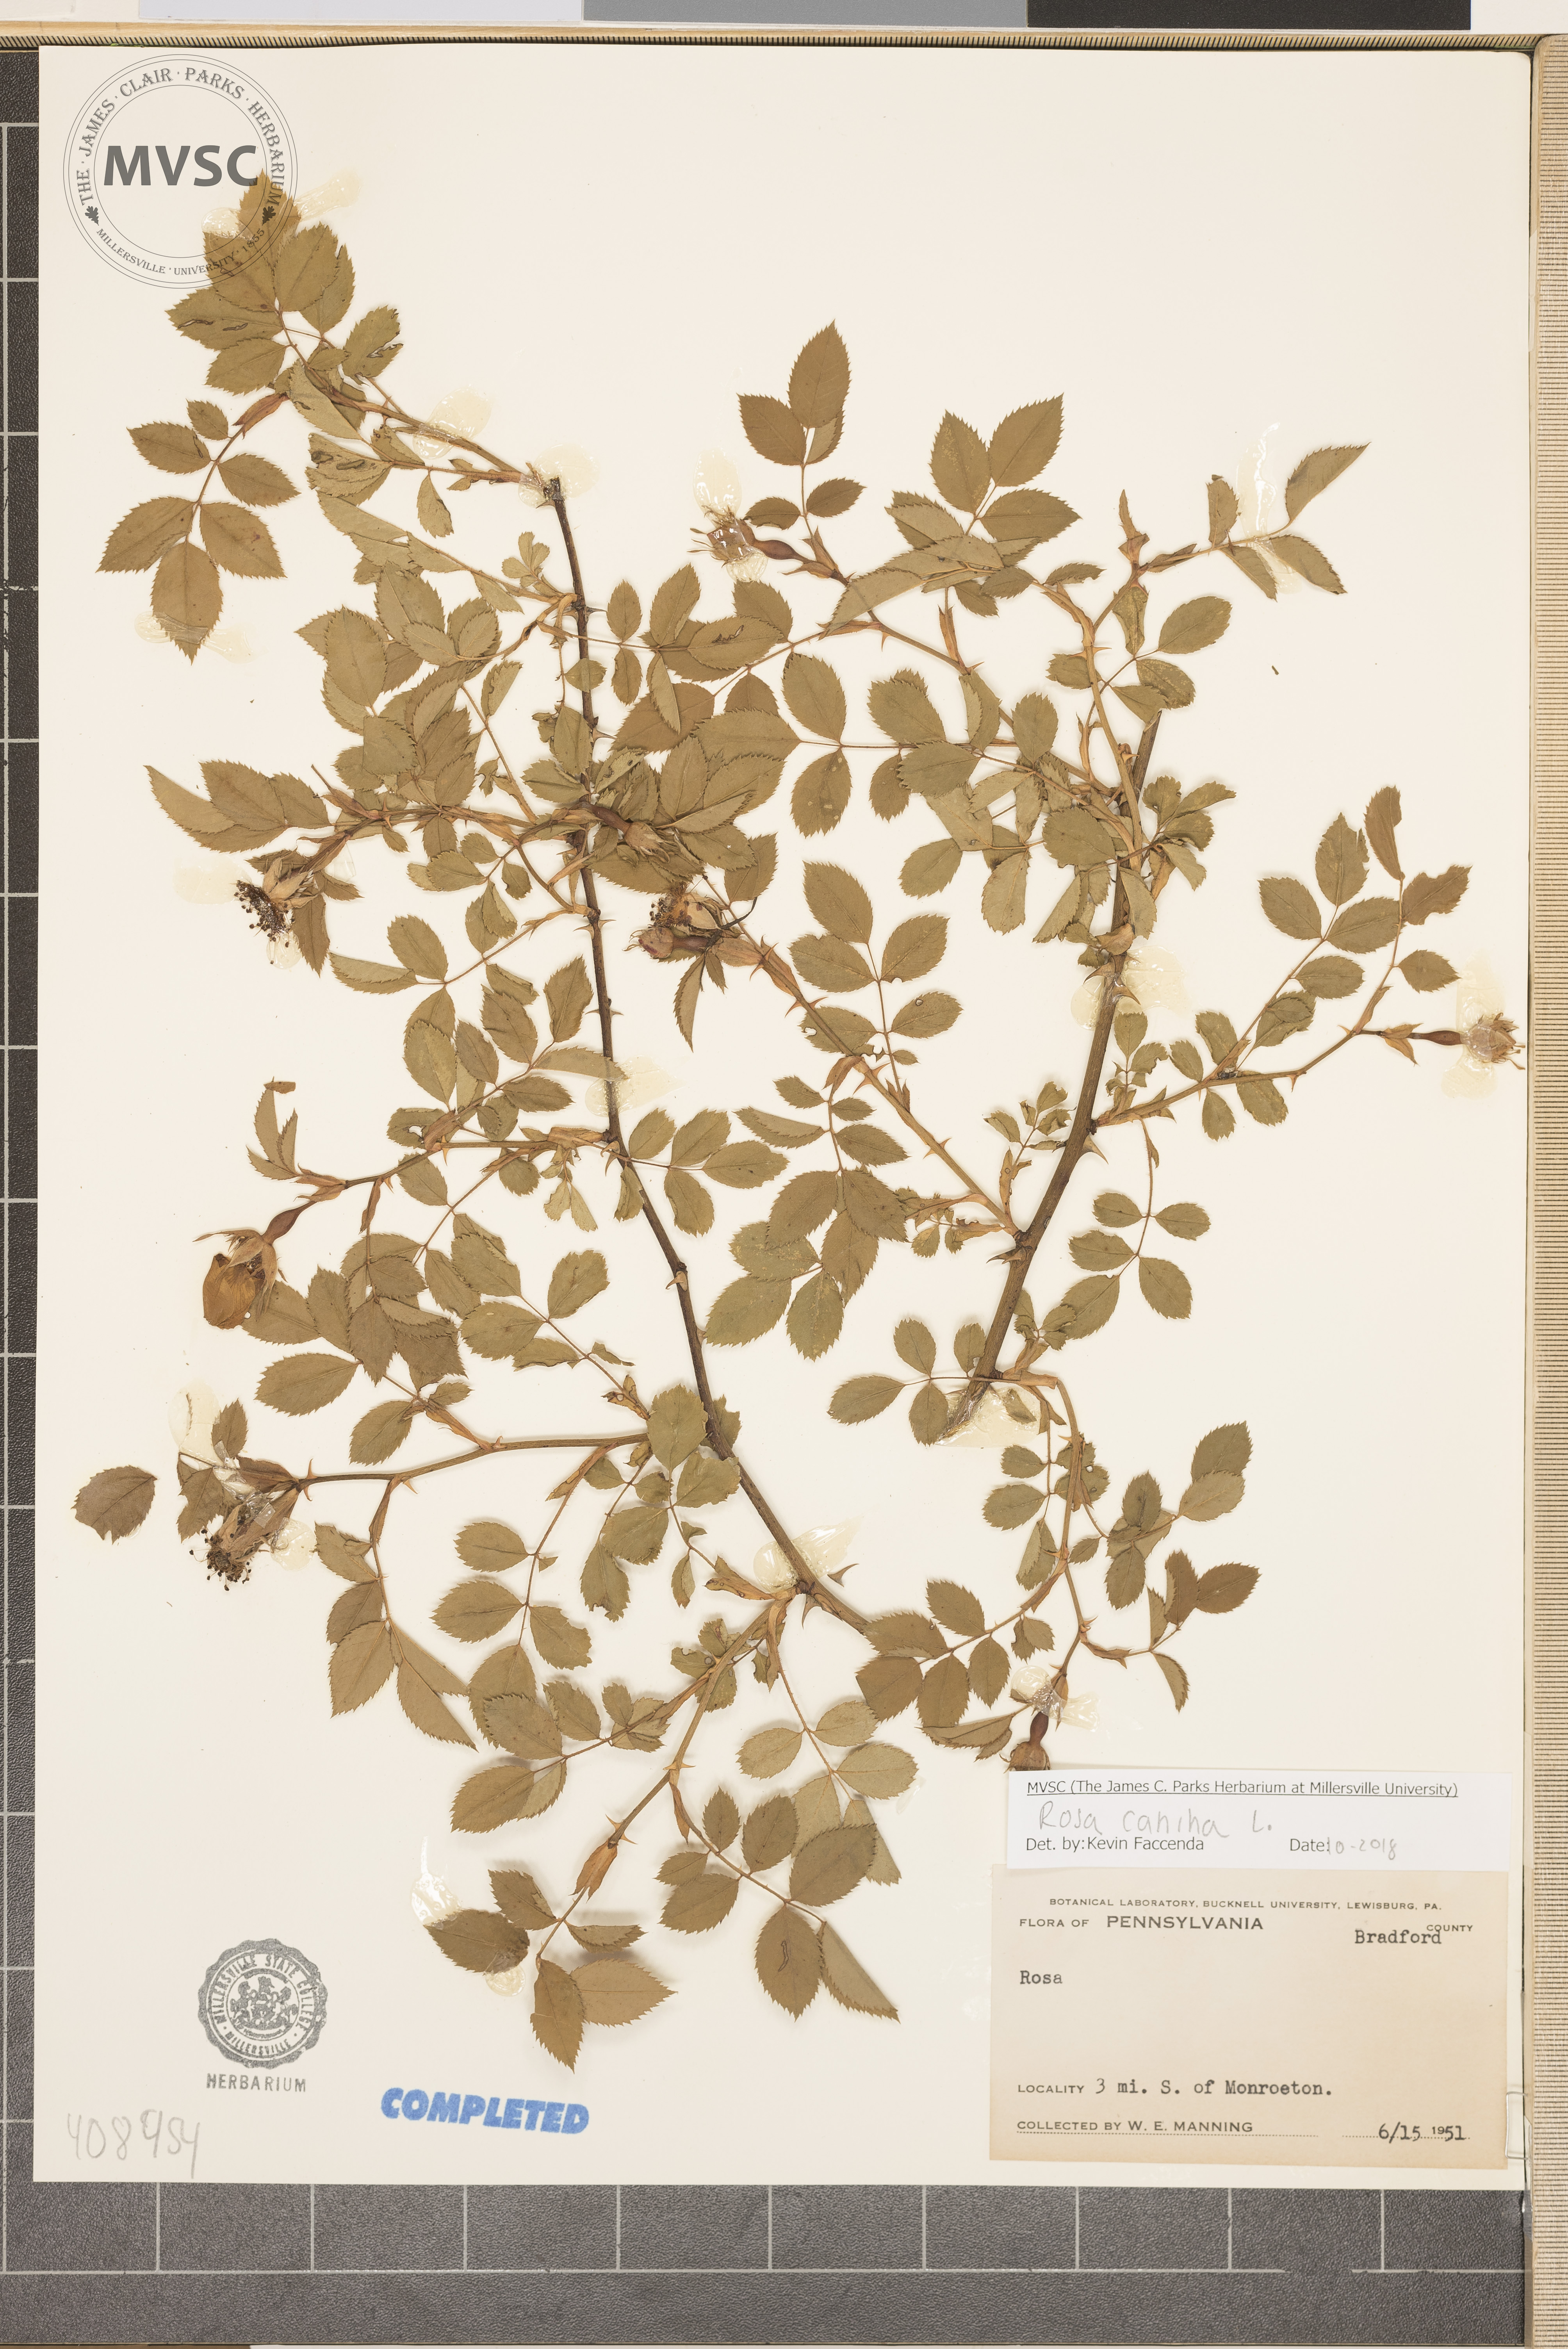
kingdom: Plantae
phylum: Tracheophyta
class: Magnoliopsida
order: Rosales
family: Rosaceae
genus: Rosa
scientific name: Rosa canina
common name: Dog rose
